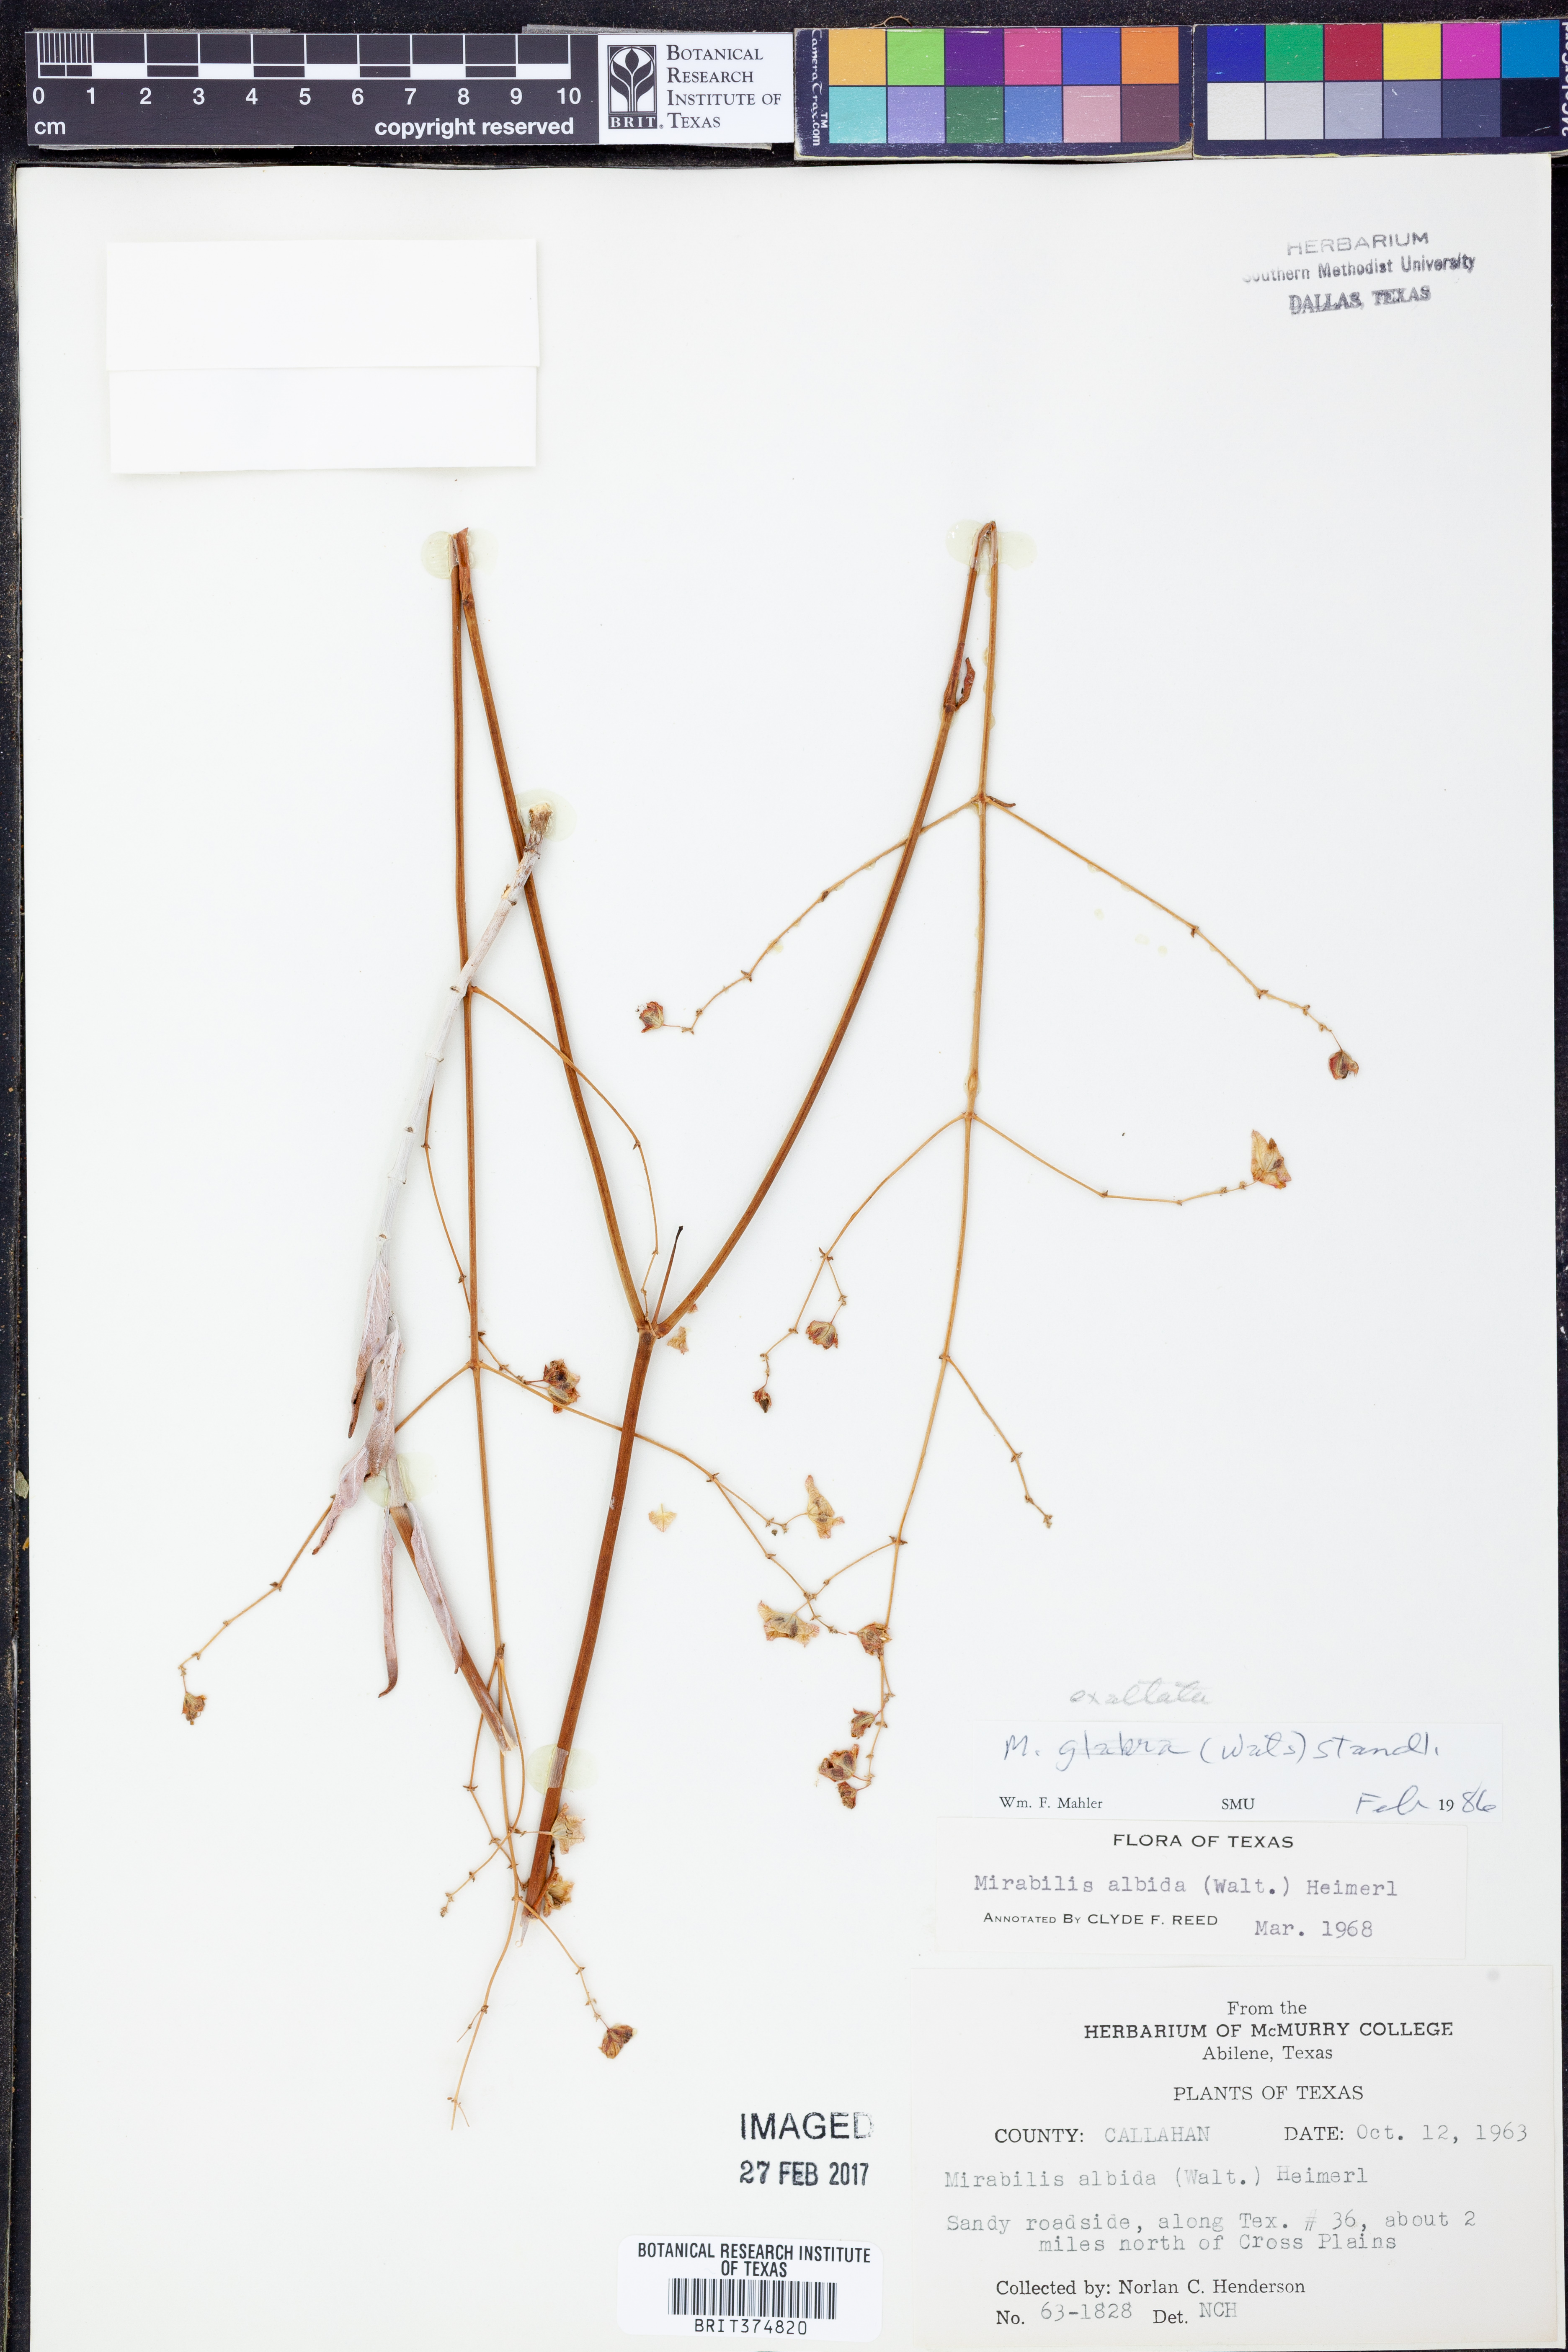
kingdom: Plantae
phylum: Tracheophyta
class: Magnoliopsida
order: Caryophyllales
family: Nyctaginaceae
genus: Mirabilis
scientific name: Mirabilis glabra
